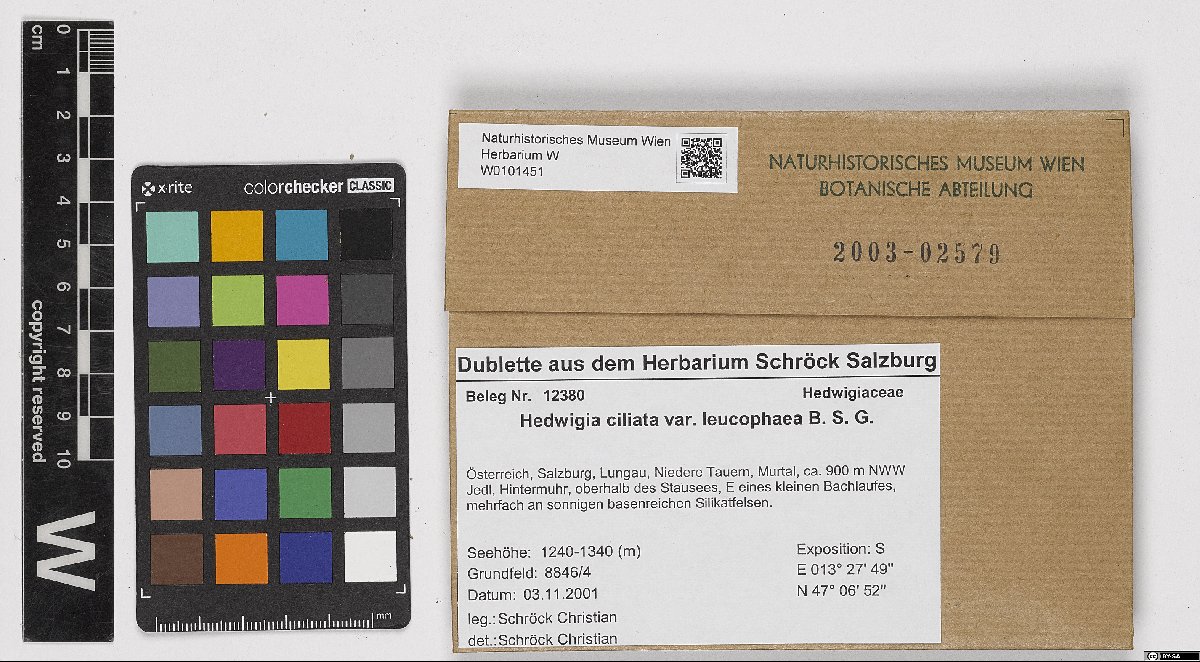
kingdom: Plantae
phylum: Bryophyta
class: Bryopsida
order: Hedwigiales
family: Hedwigiaceae
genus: Hedwigia
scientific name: Hedwigia emodica
